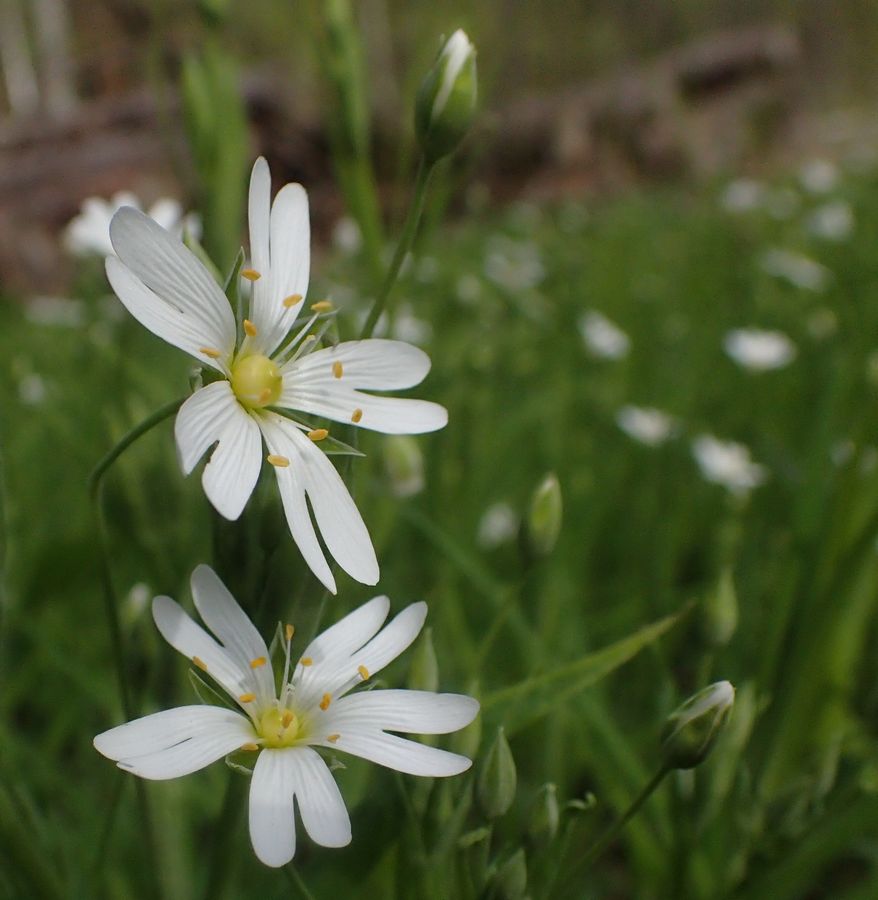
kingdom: Plantae
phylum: Tracheophyta
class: Magnoliopsida
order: Caryophyllales
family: Caryophyllaceae
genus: Stellaria
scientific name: Stellaria
